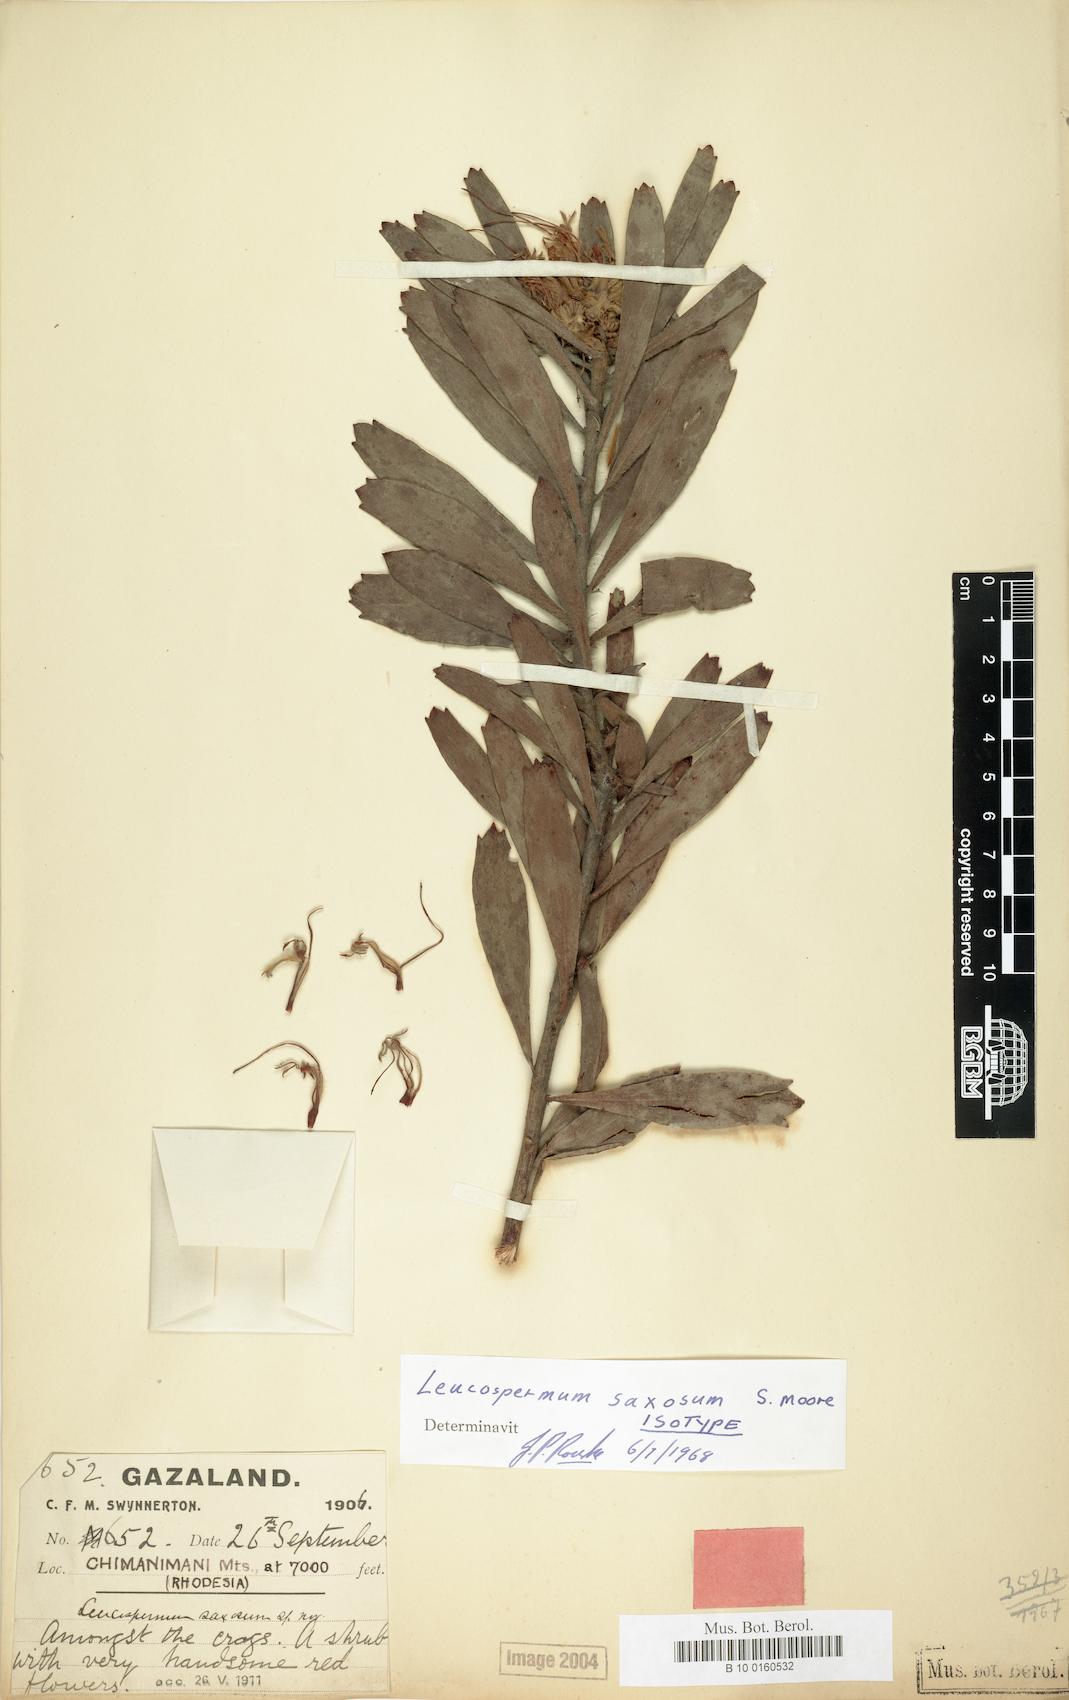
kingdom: Plantae
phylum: Tracheophyta
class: Magnoliopsida
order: Proteales
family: Proteaceae
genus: Leucospermum
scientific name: Leucospermum saxosum
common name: Chimanimani pincushion
